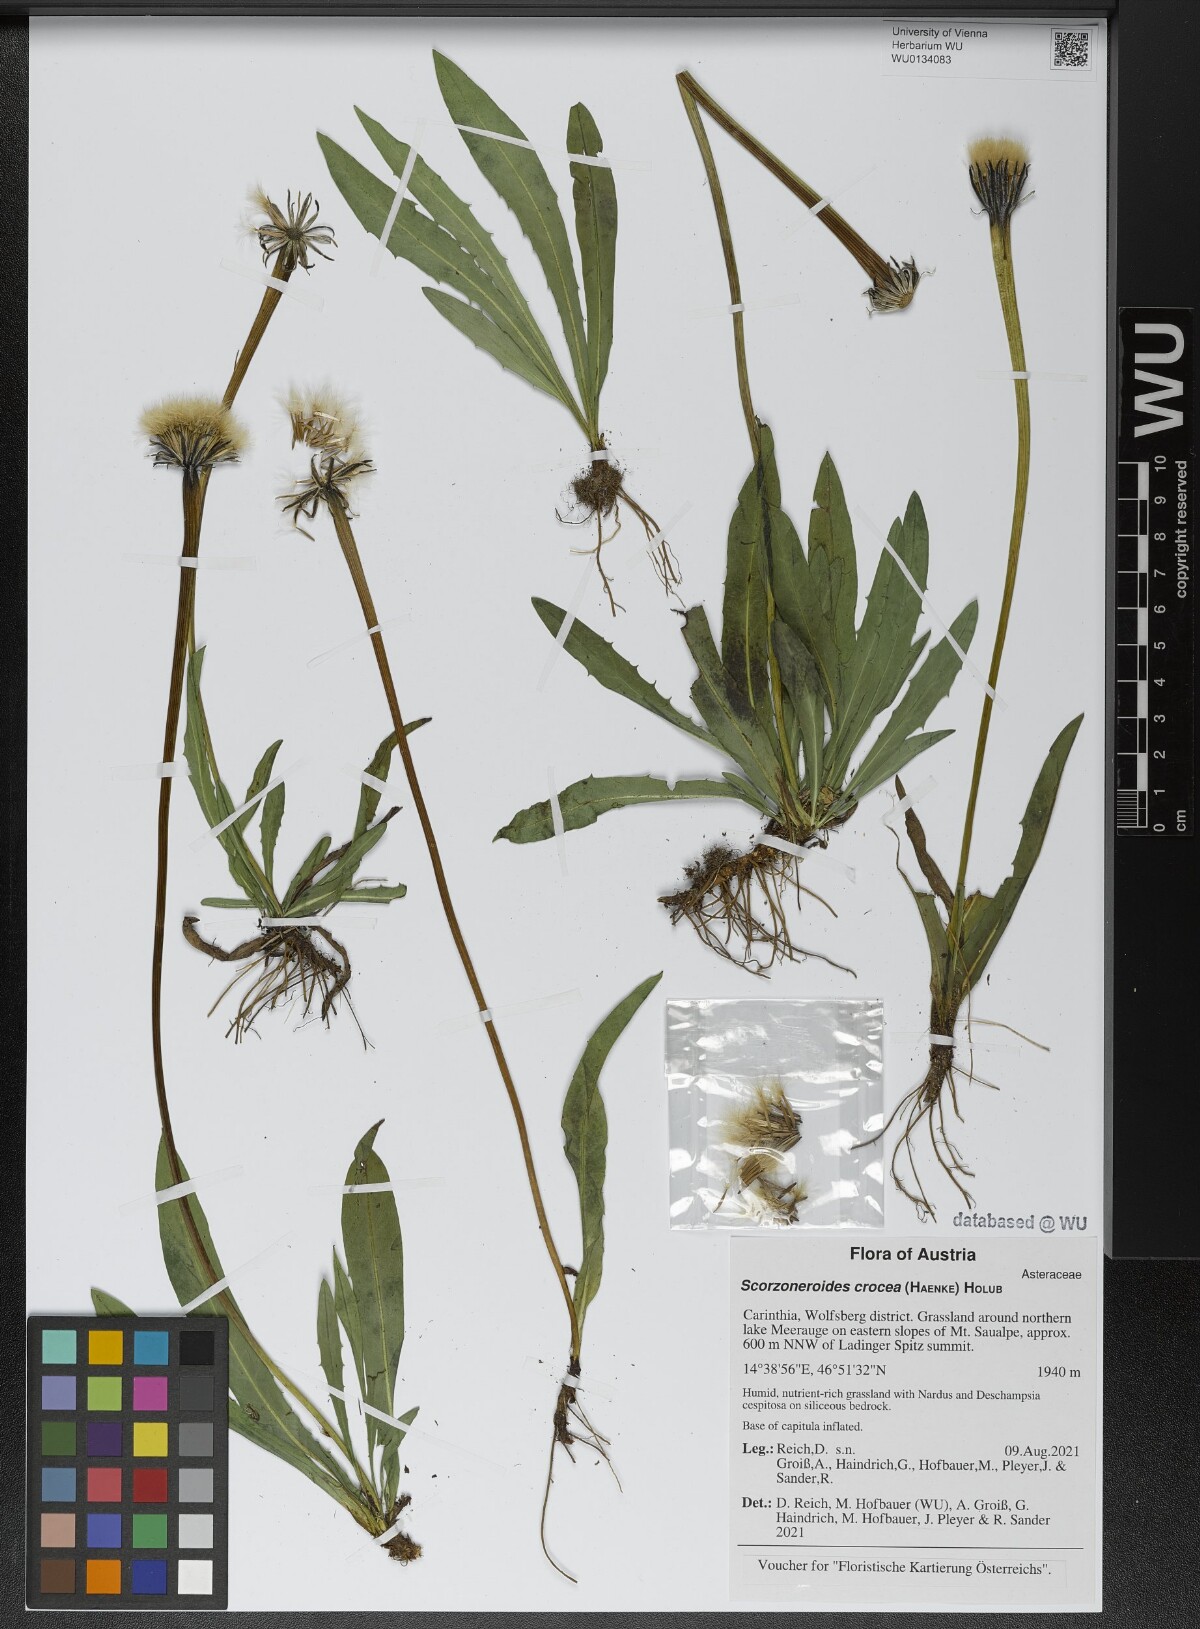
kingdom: Plantae
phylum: Tracheophyta
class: Magnoliopsida
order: Asterales
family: Asteraceae
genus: Scorzoneroides
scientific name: Scorzoneroides crocea
